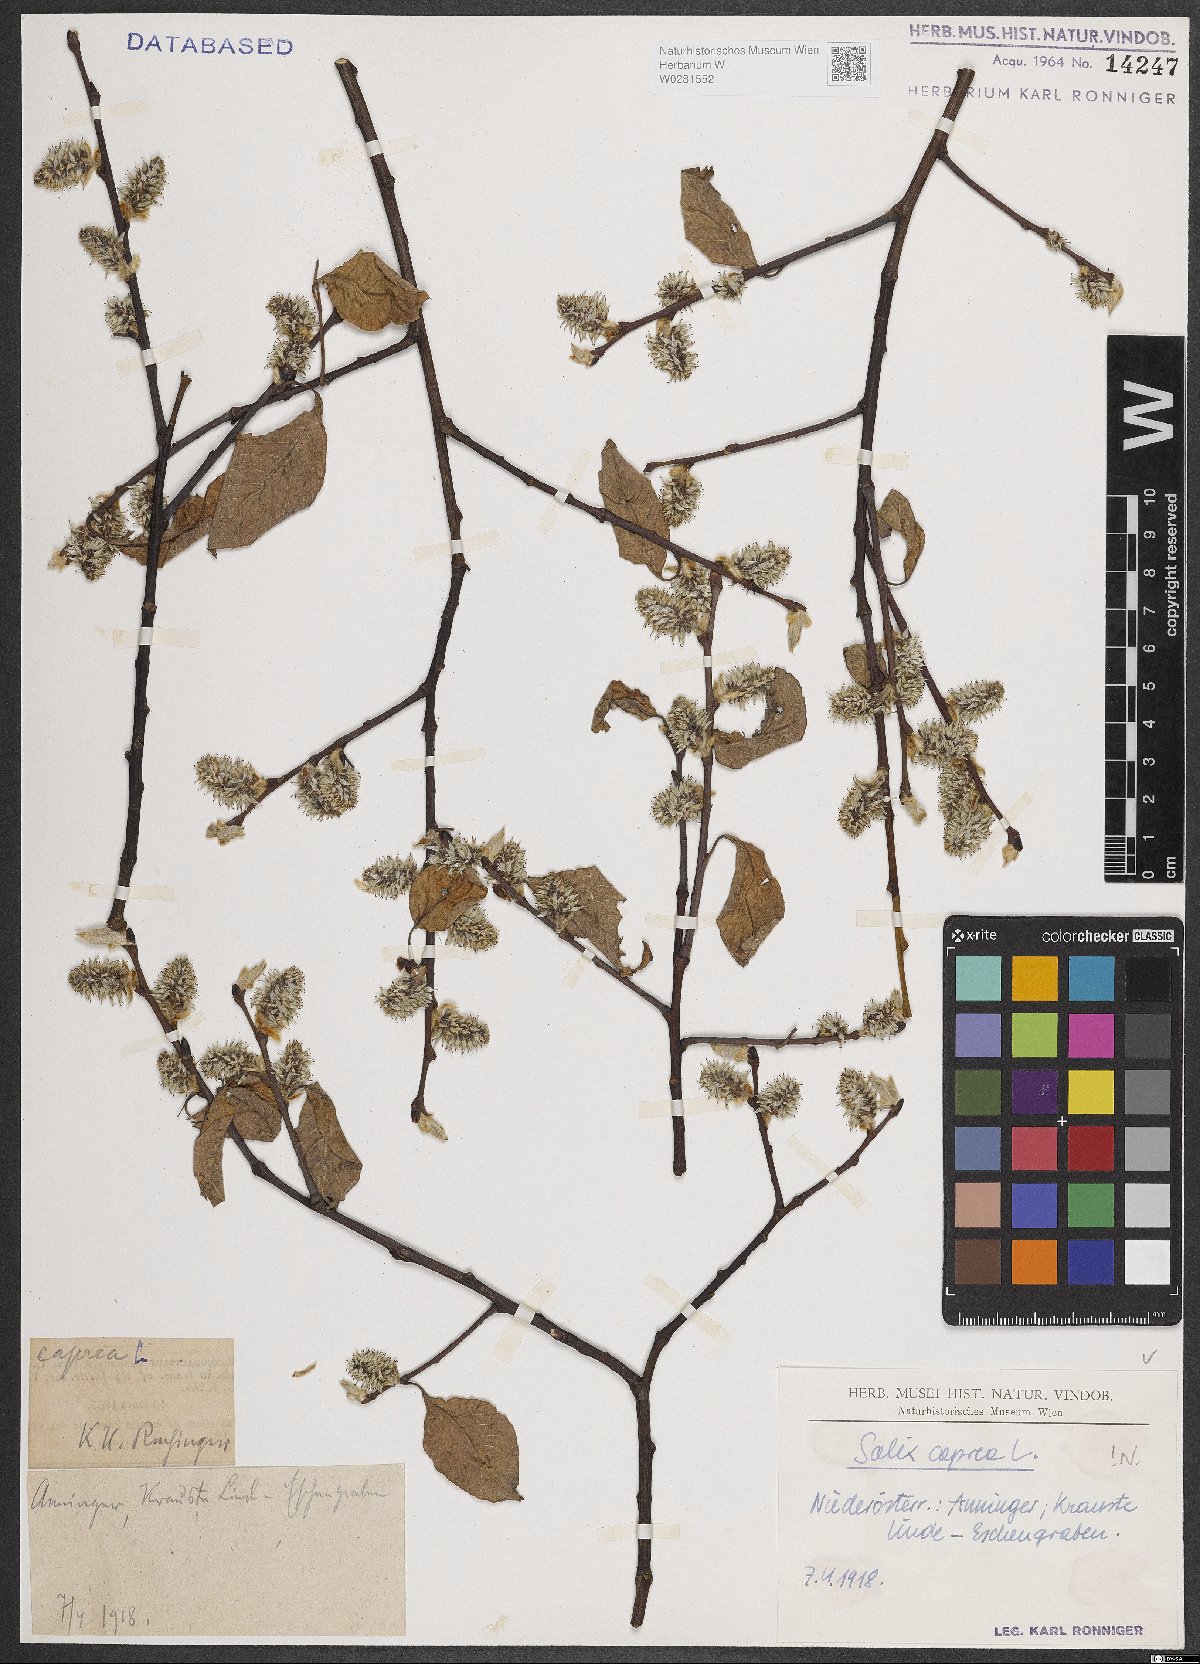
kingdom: Plantae
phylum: Tracheophyta
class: Magnoliopsida
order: Malpighiales
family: Salicaceae
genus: Salix
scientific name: Salix caprea
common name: Goat willow
